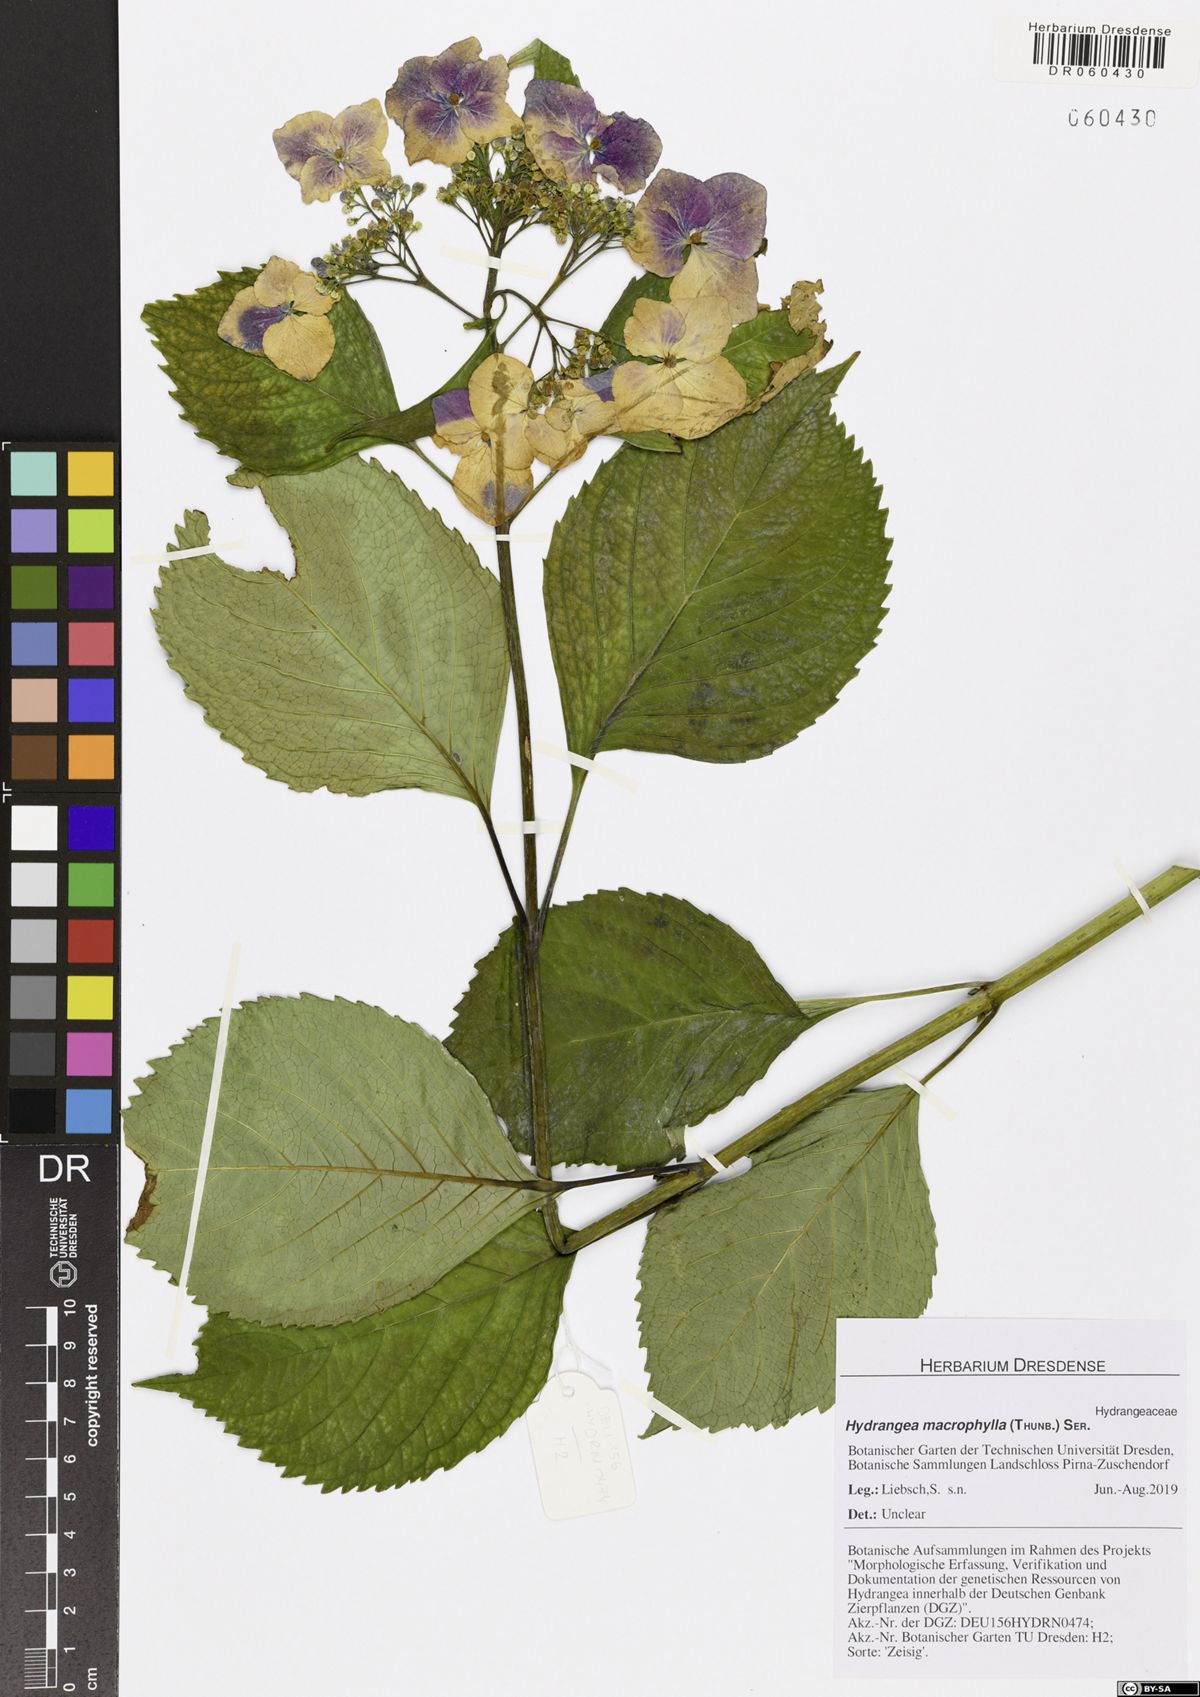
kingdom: Plantae
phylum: Tracheophyta
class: Magnoliopsida
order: Cornales
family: Hydrangeaceae
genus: Hydrangea
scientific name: Hydrangea macrophylla
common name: Hydrangea
